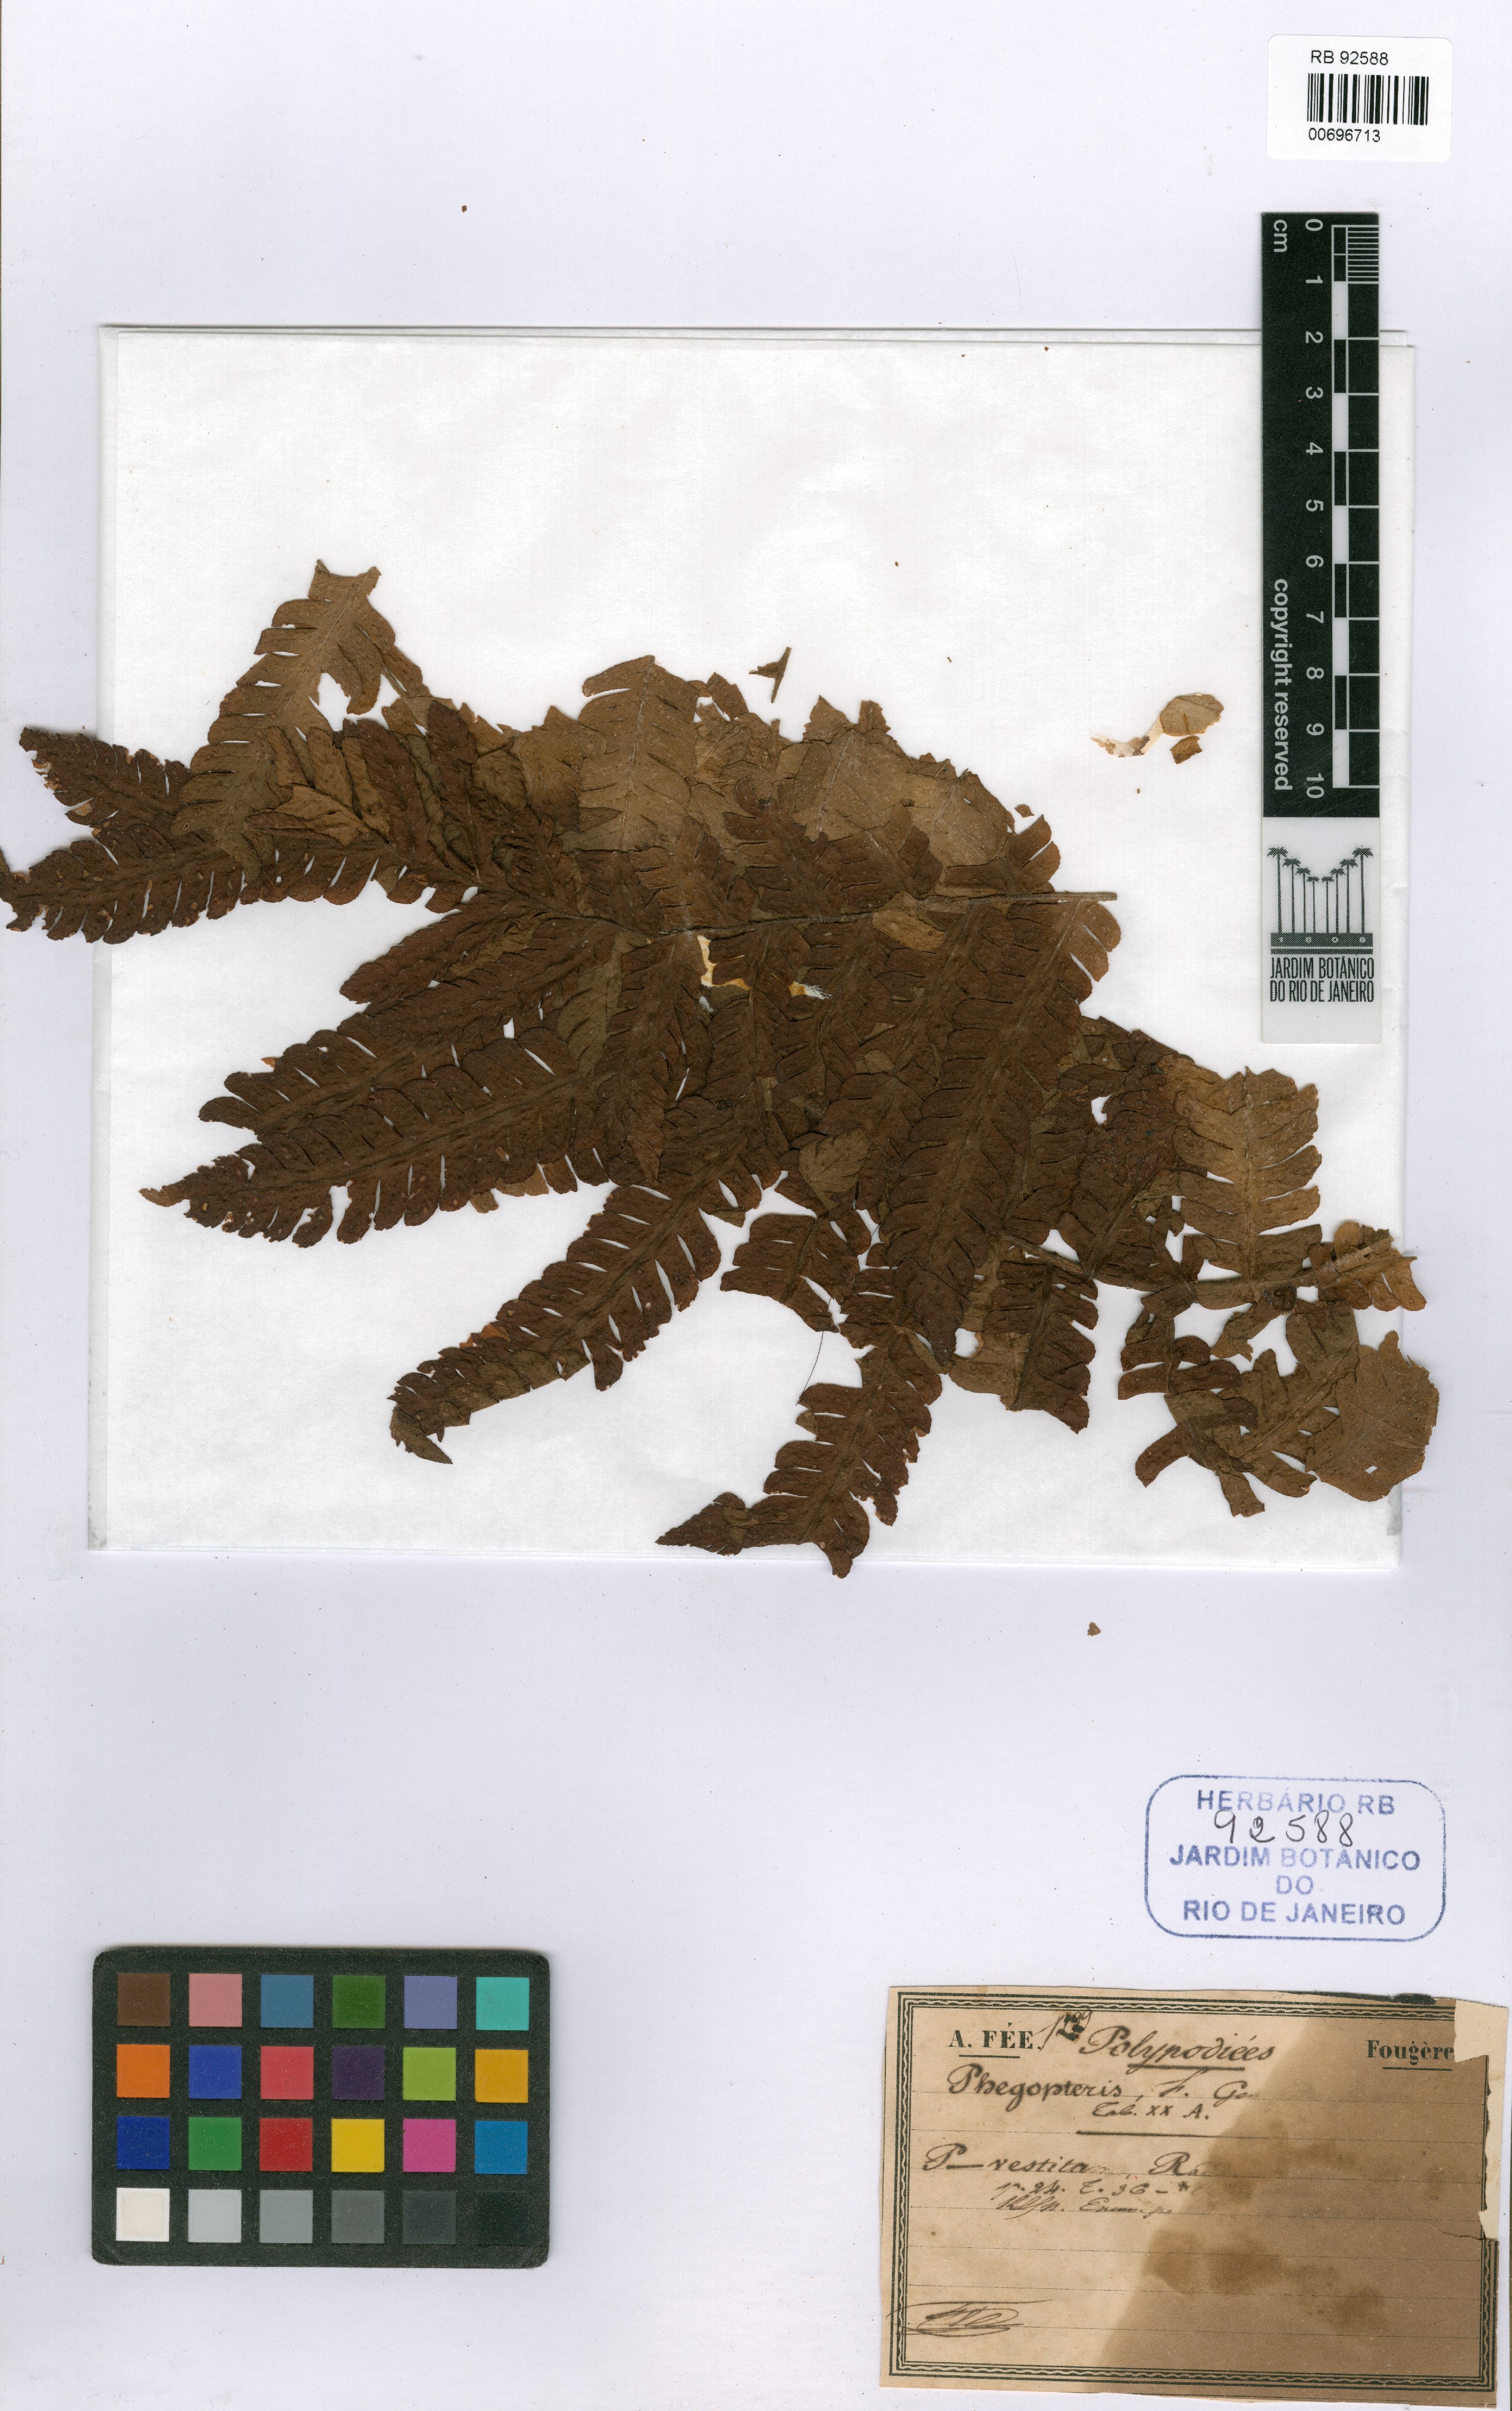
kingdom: Plantae
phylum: Tracheophyta
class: Polypodiopsida
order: Polypodiales
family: Dryopteridaceae
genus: Megalastrum
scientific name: Megalastrum spectabile
